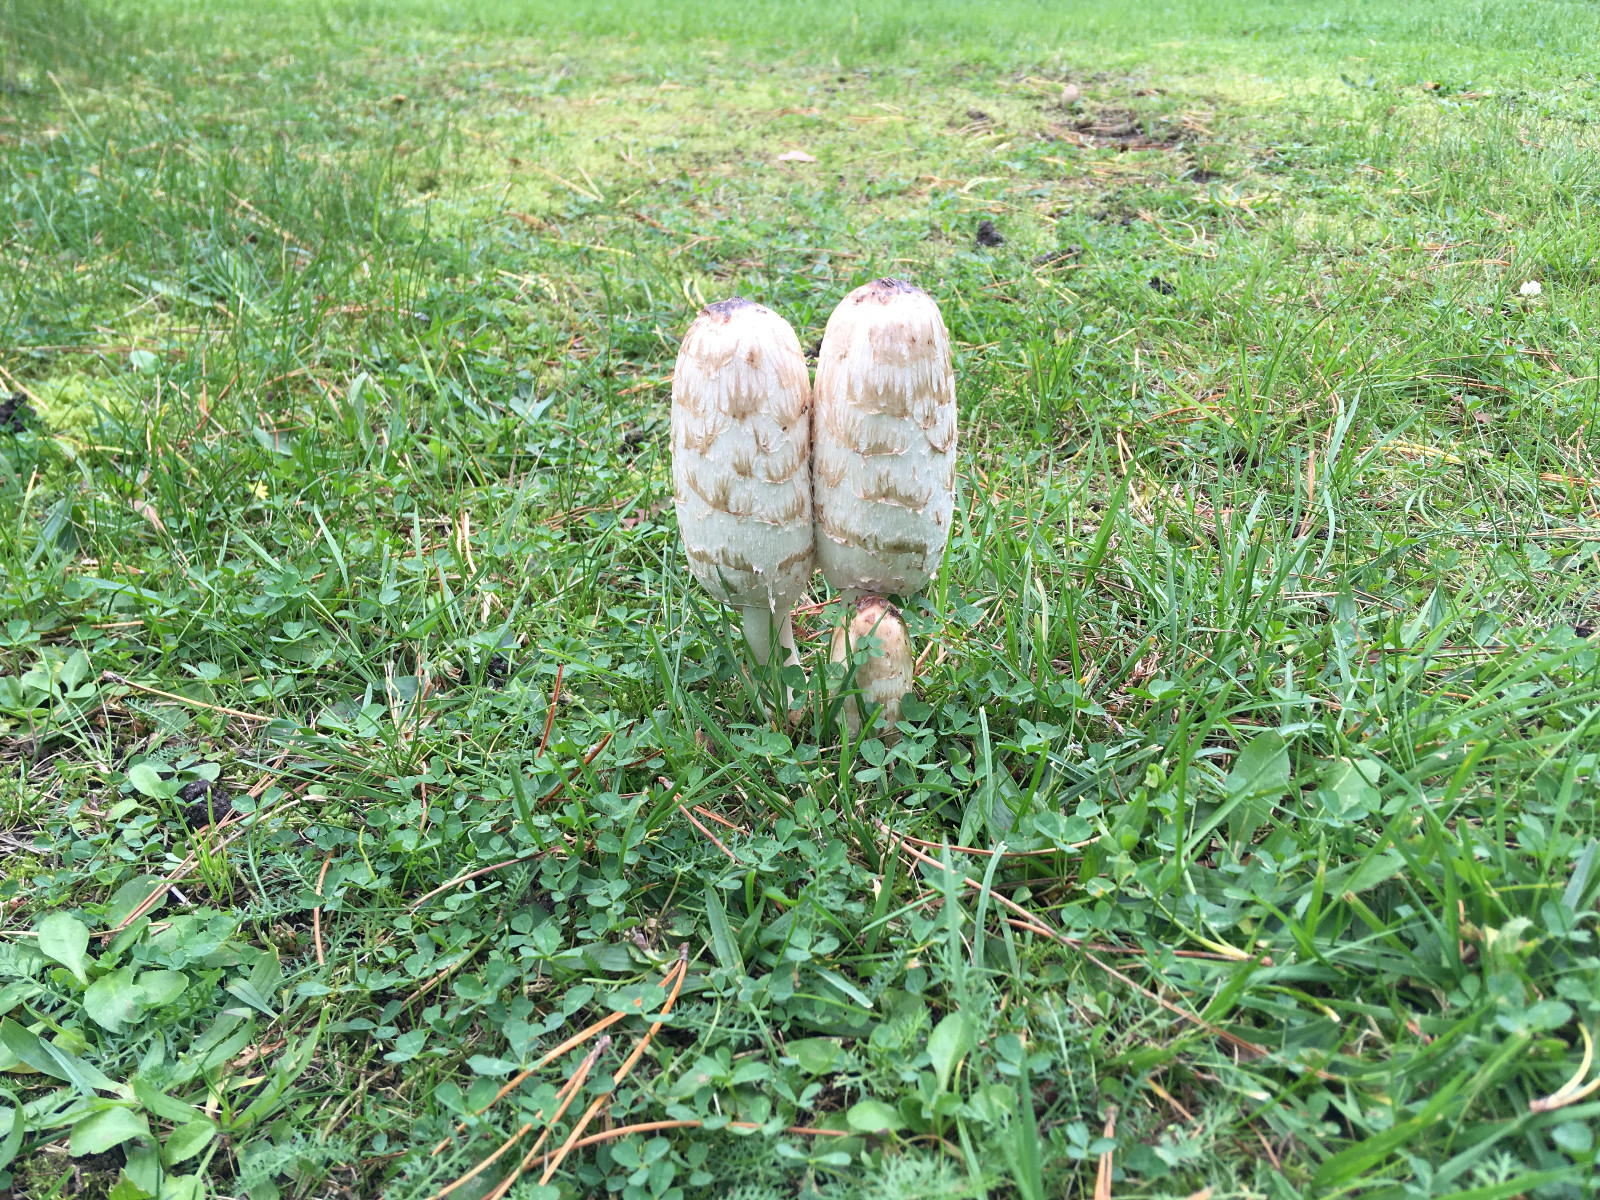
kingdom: Fungi
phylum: Basidiomycota
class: Agaricomycetes
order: Agaricales
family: Agaricaceae
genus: Coprinus
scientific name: Coprinus comatus
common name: stor parykhat
